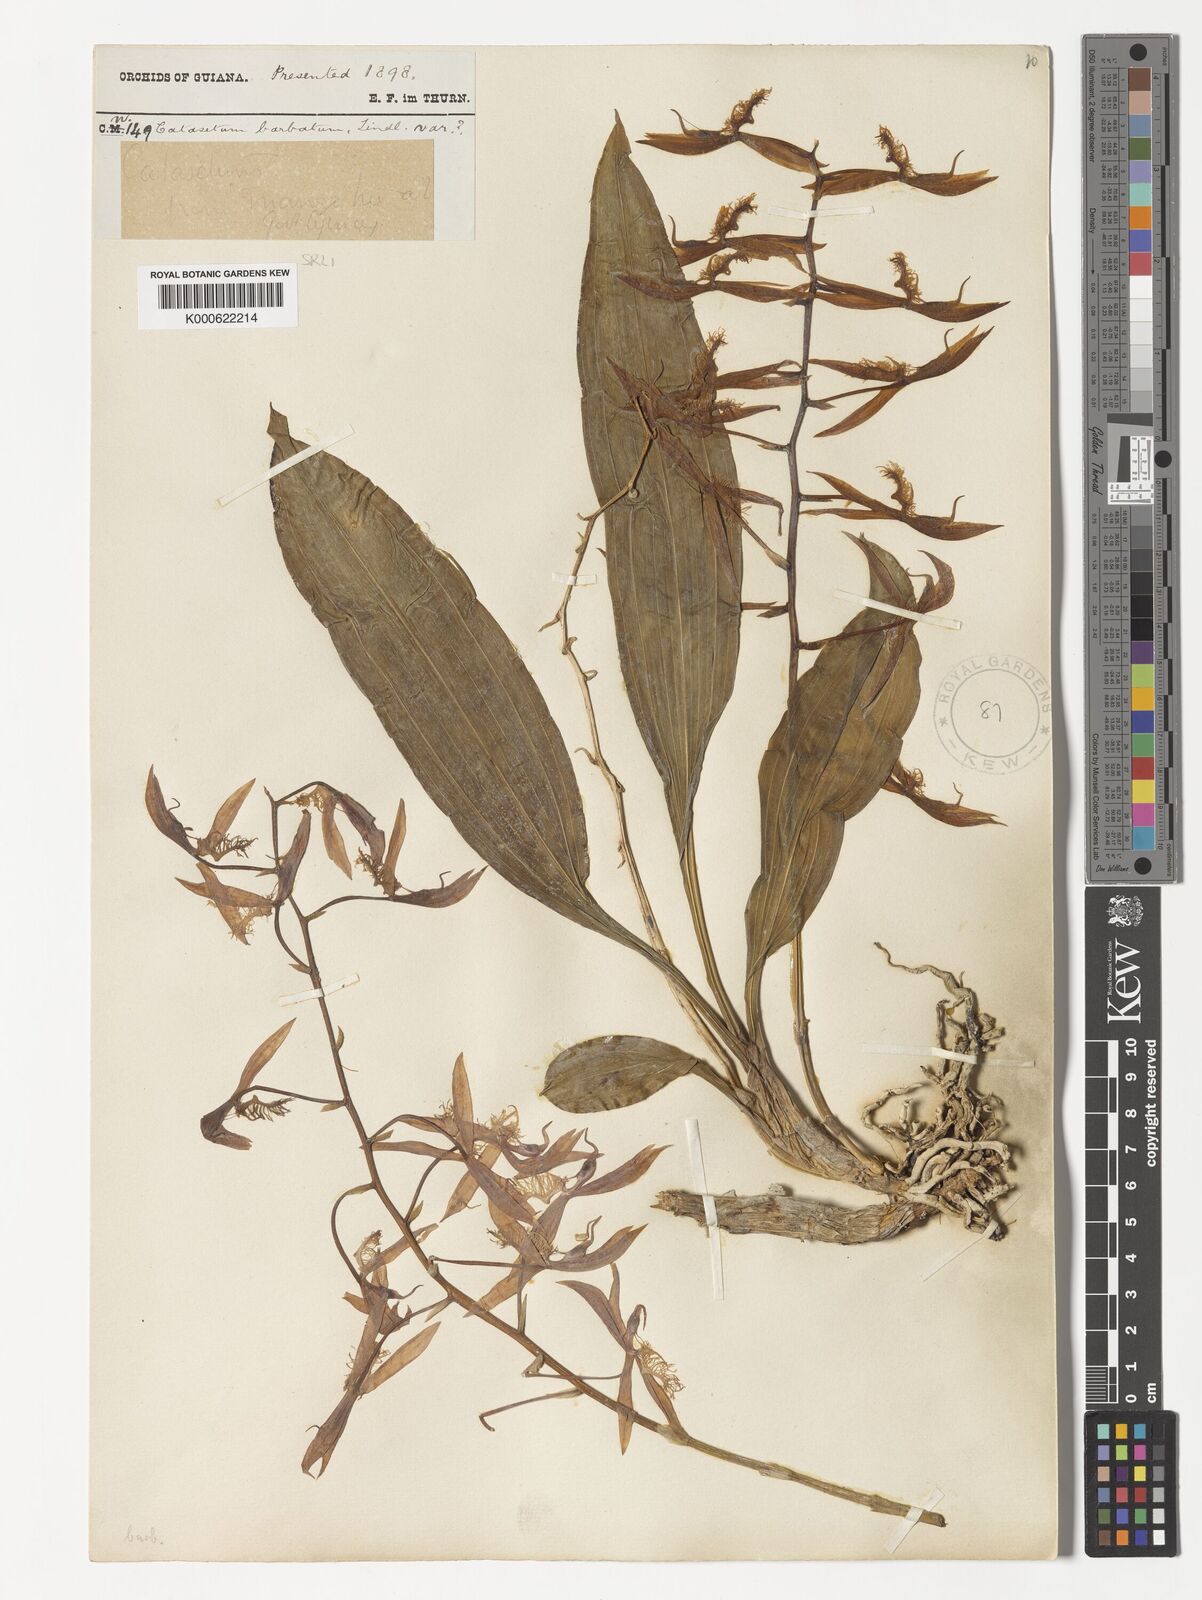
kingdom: Plantae
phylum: Tracheophyta
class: Liliopsida
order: Asparagales
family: Orchidaceae
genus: Catasetum
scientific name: Catasetum barbatum
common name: Bearded catasetum
